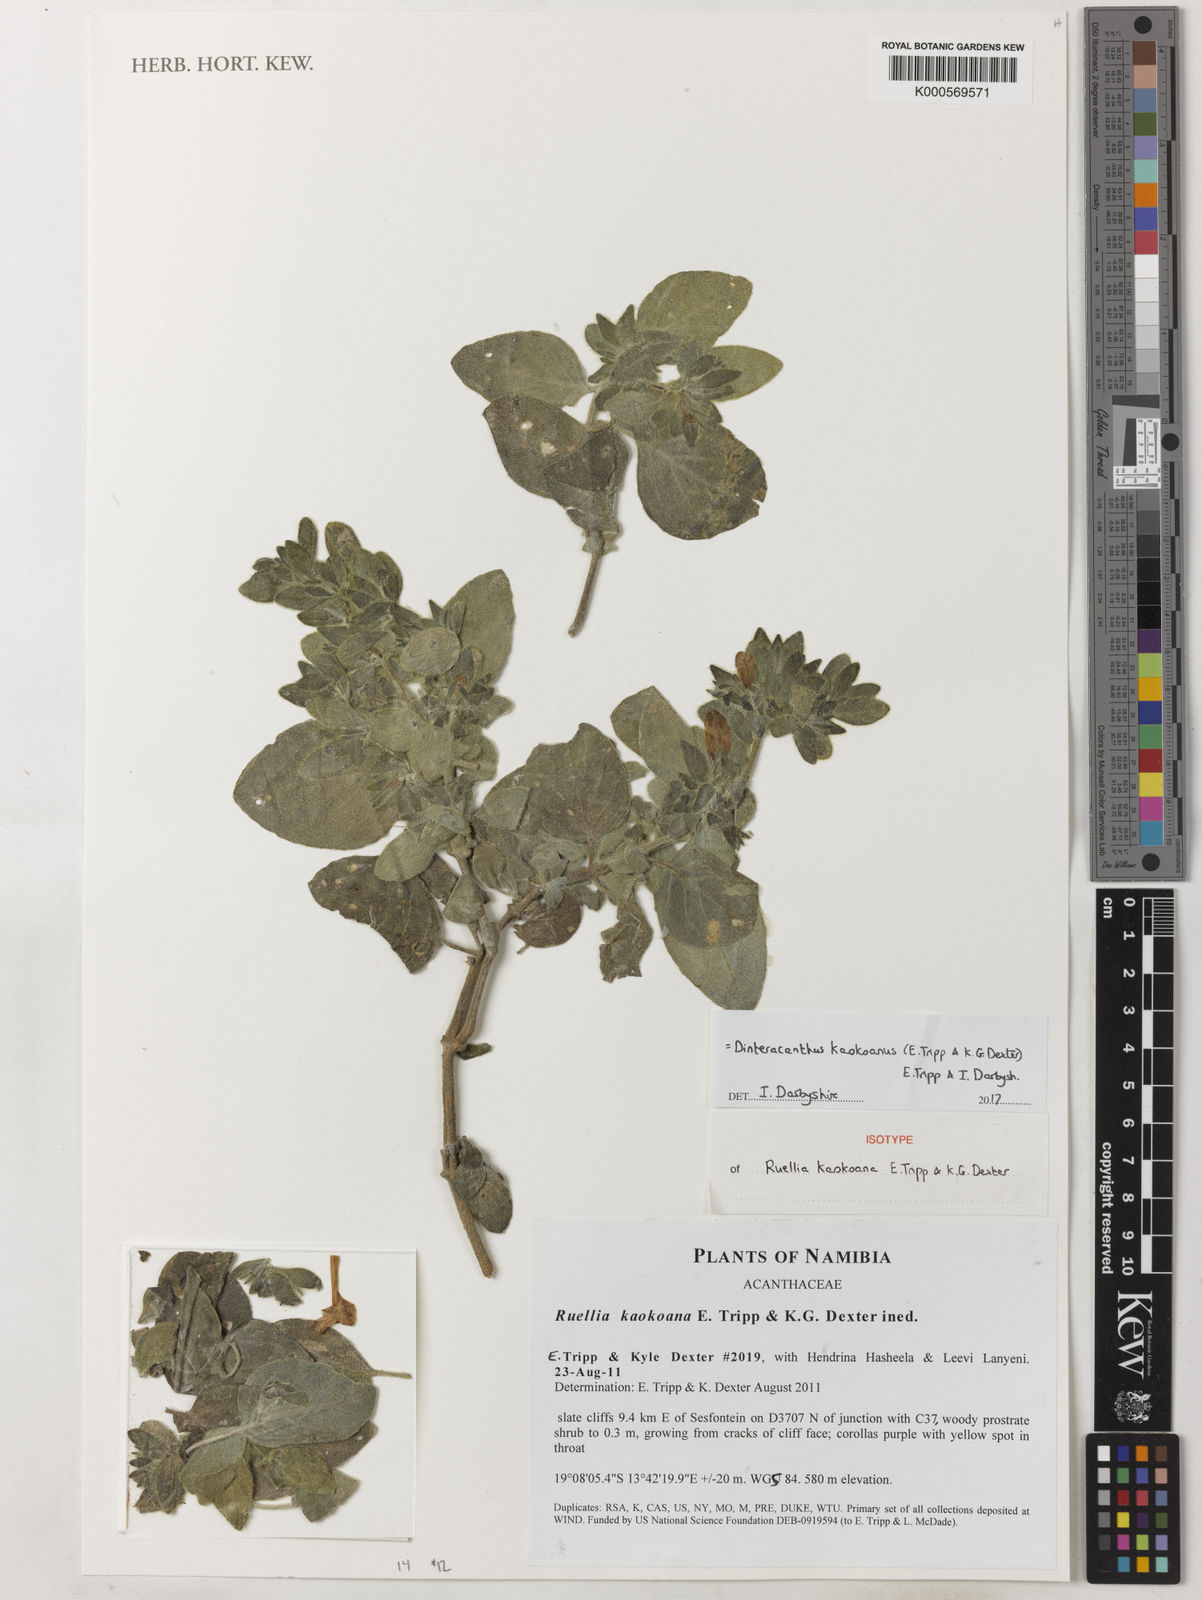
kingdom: Plantae
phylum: Tracheophyta
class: Magnoliopsida
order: Lamiales
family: Acanthaceae
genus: Dinteracanthus
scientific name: Dinteracanthus kaokoanus
